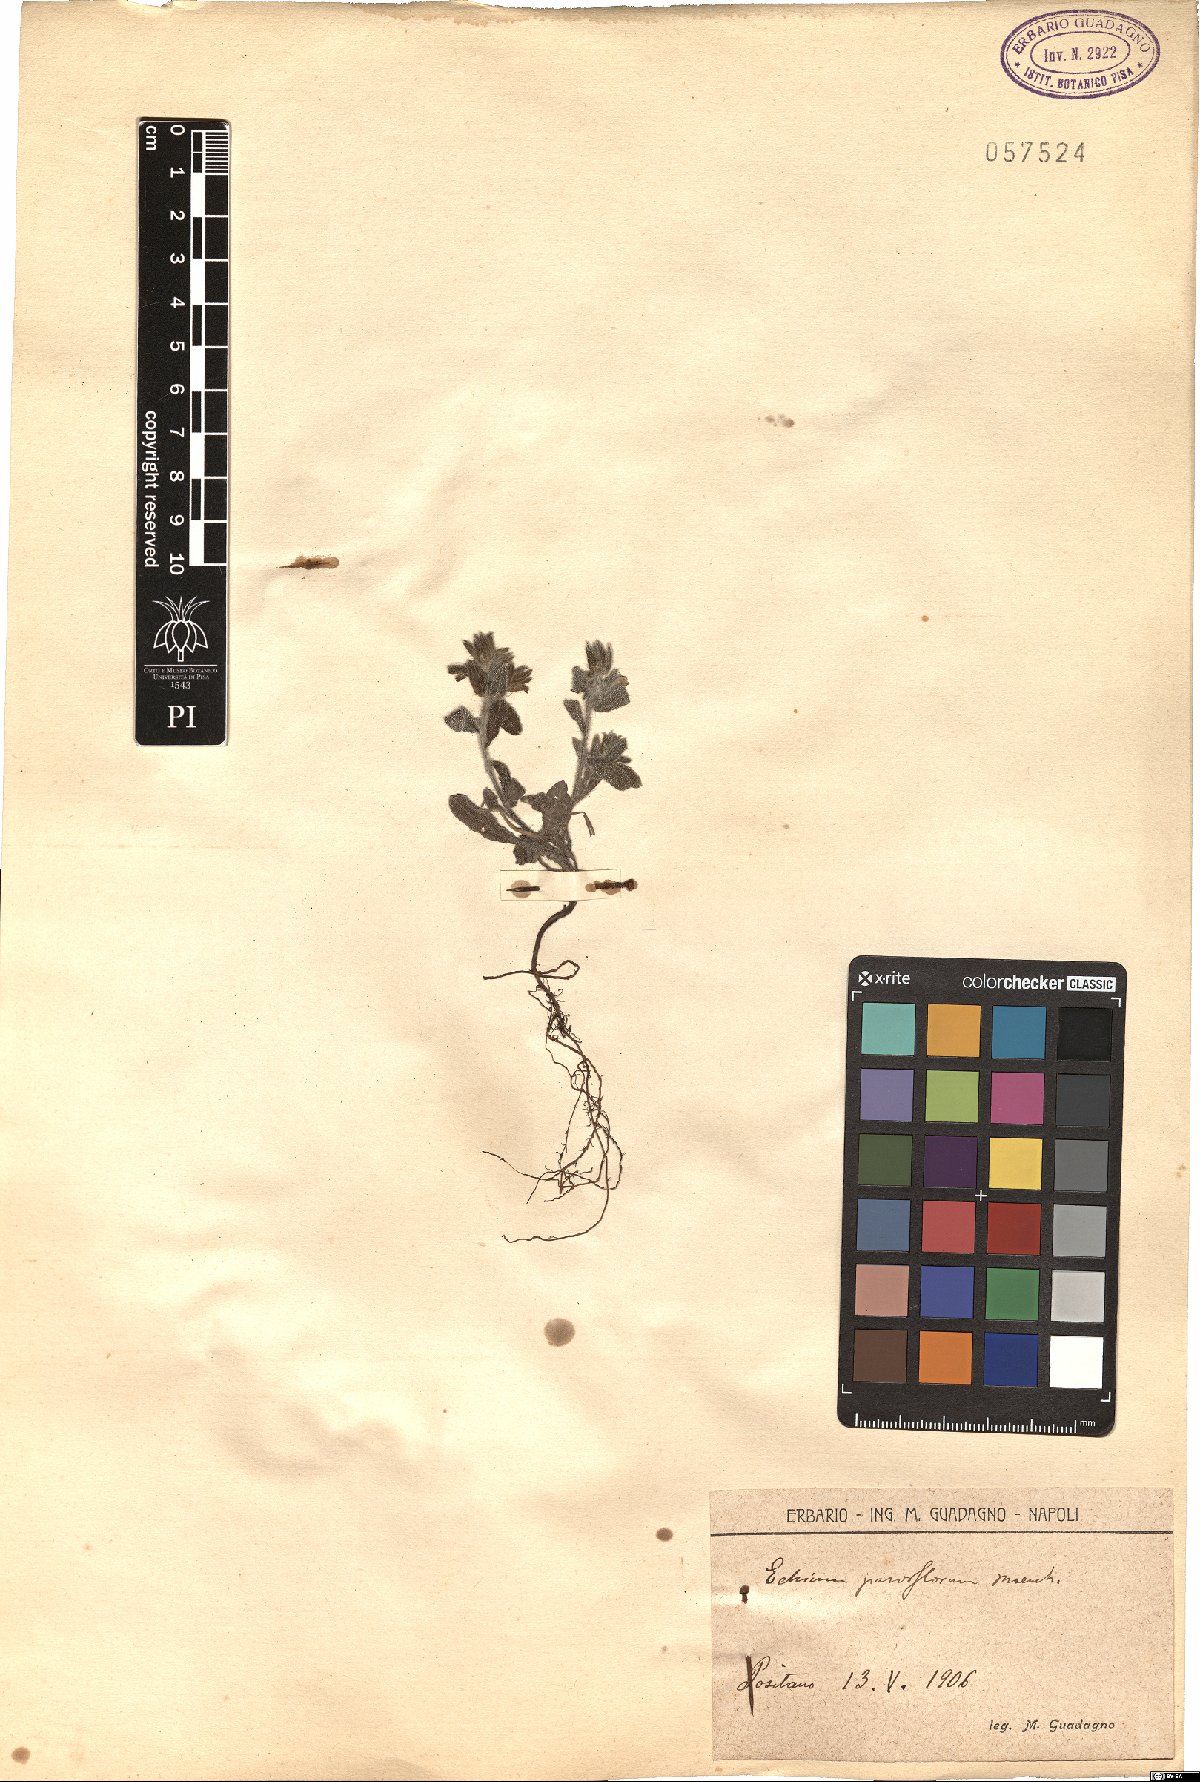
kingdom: Plantae
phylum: Tracheophyta
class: Magnoliopsida
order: Boraginales
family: Boraginaceae
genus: Echium
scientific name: Echium parviflorum
